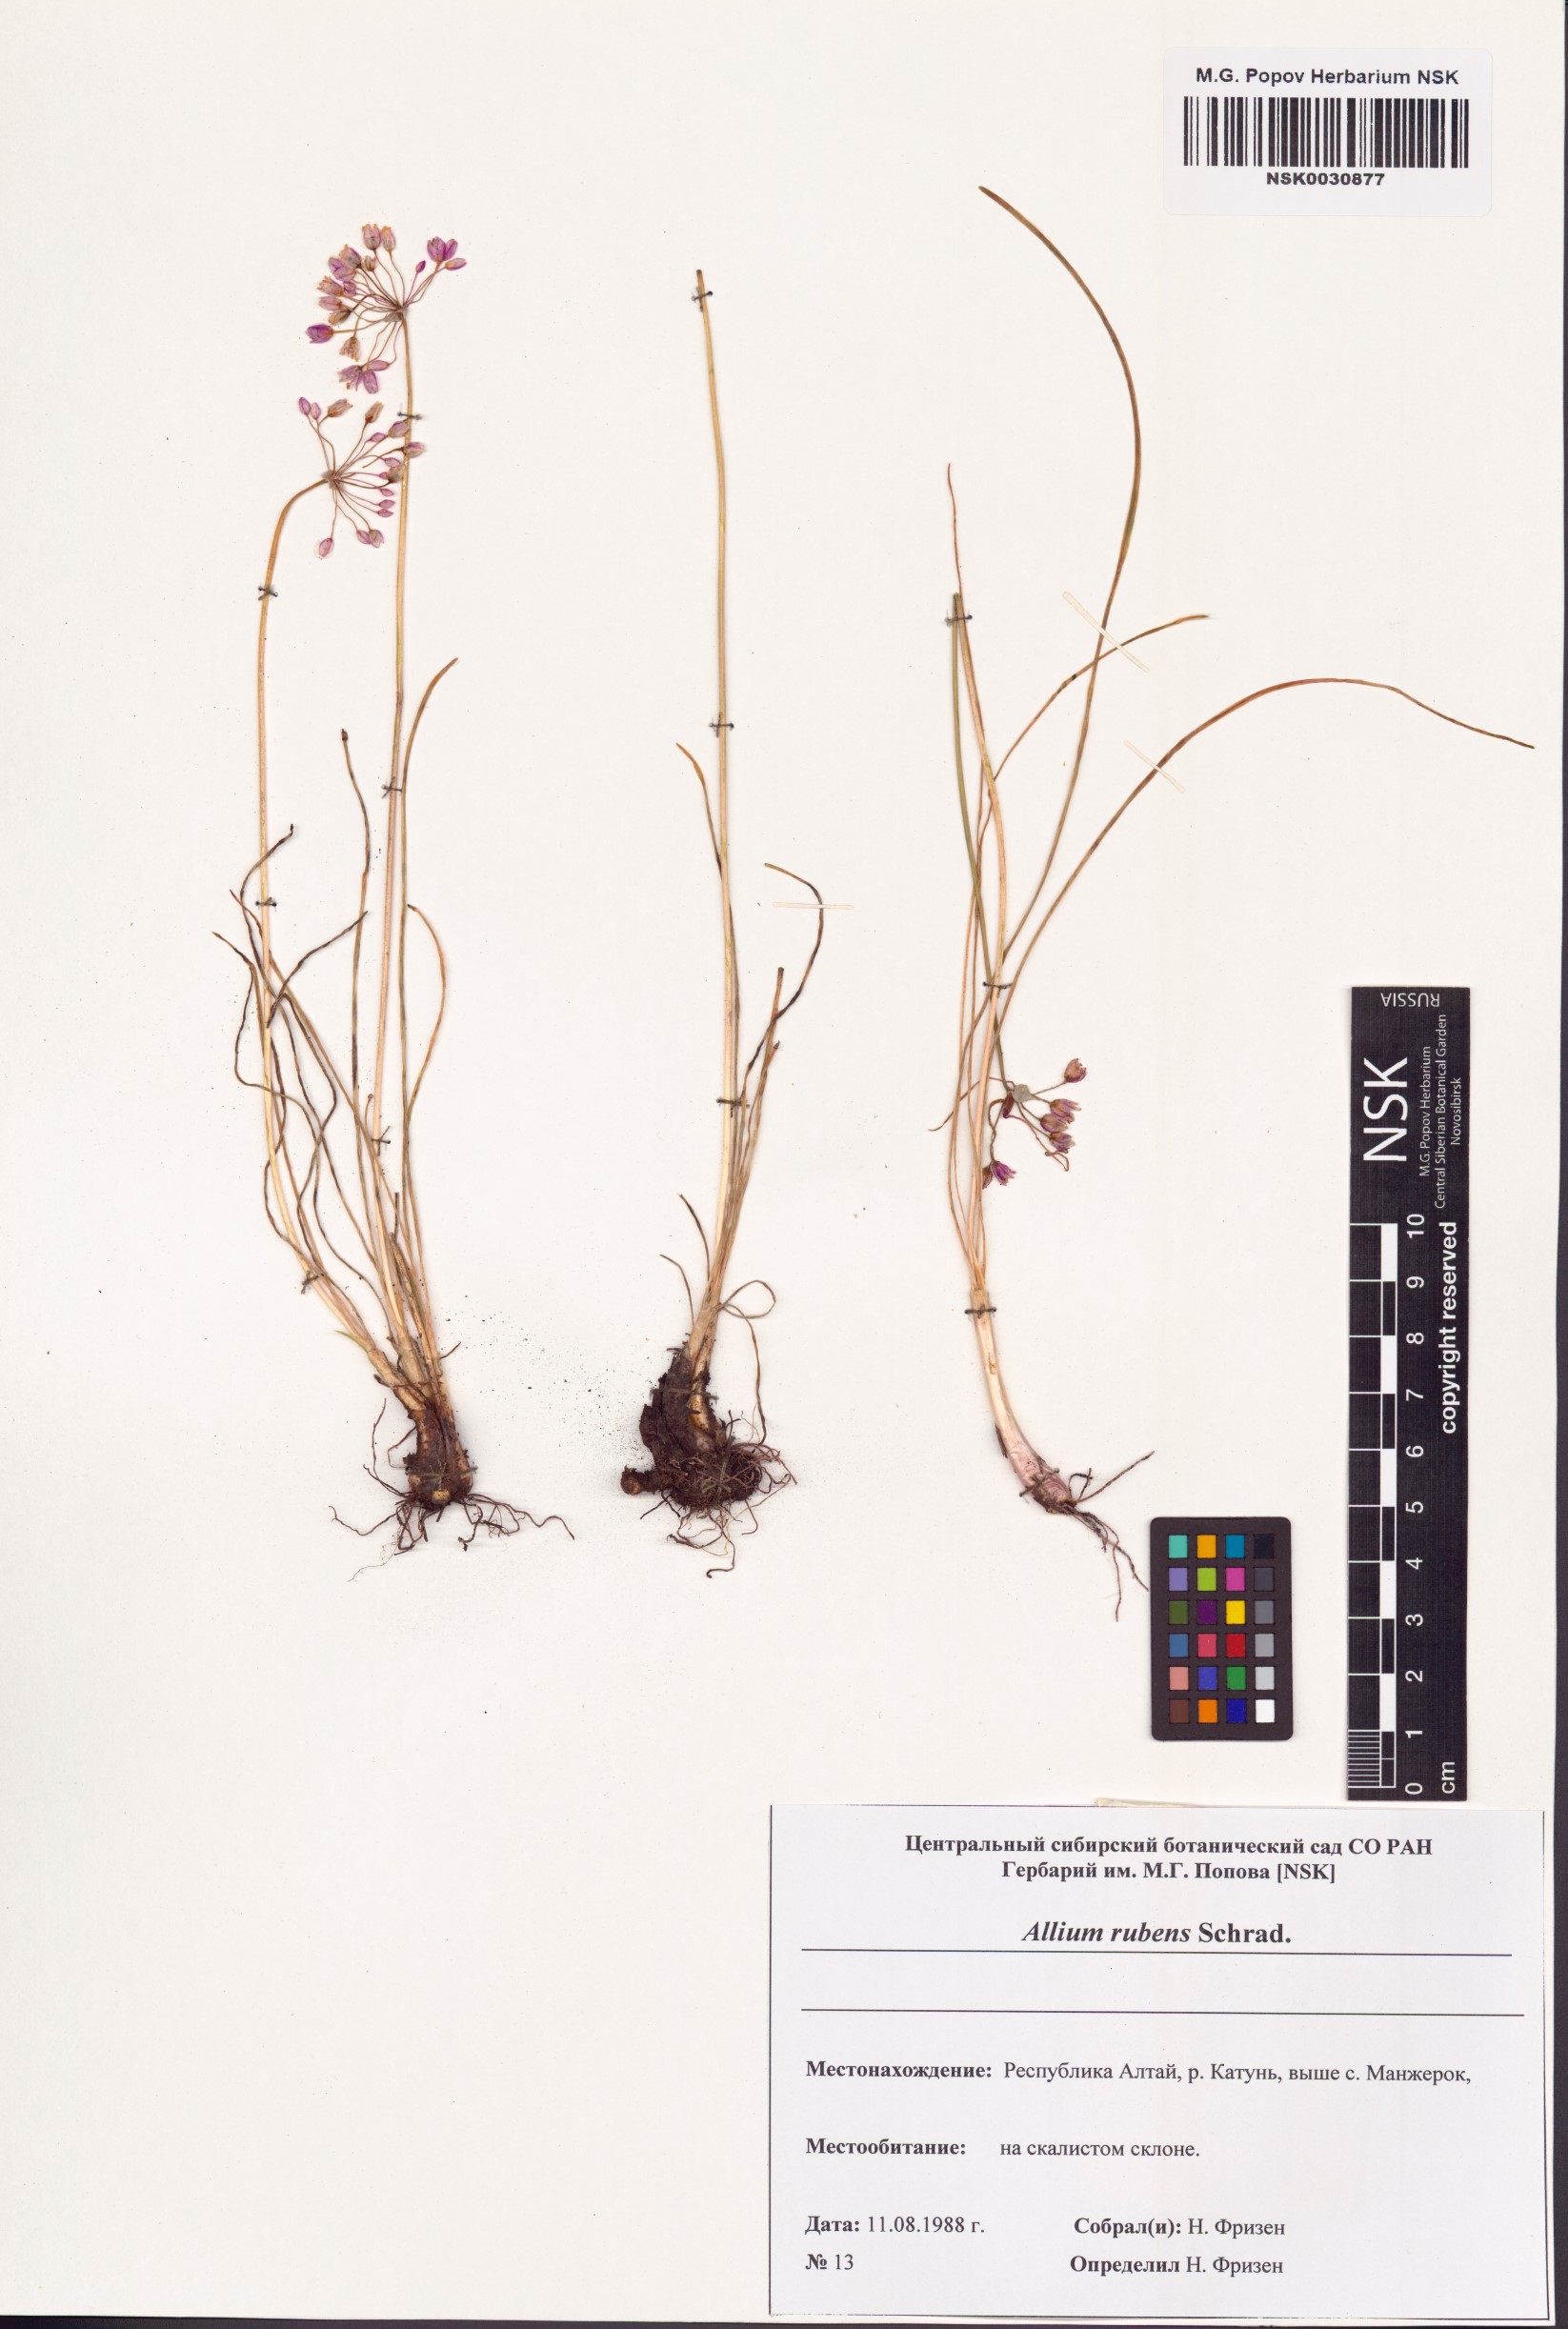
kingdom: Plantae
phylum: Tracheophyta
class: Liliopsida
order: Asparagales
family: Amaryllidaceae
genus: Allium
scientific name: Allium rubens
